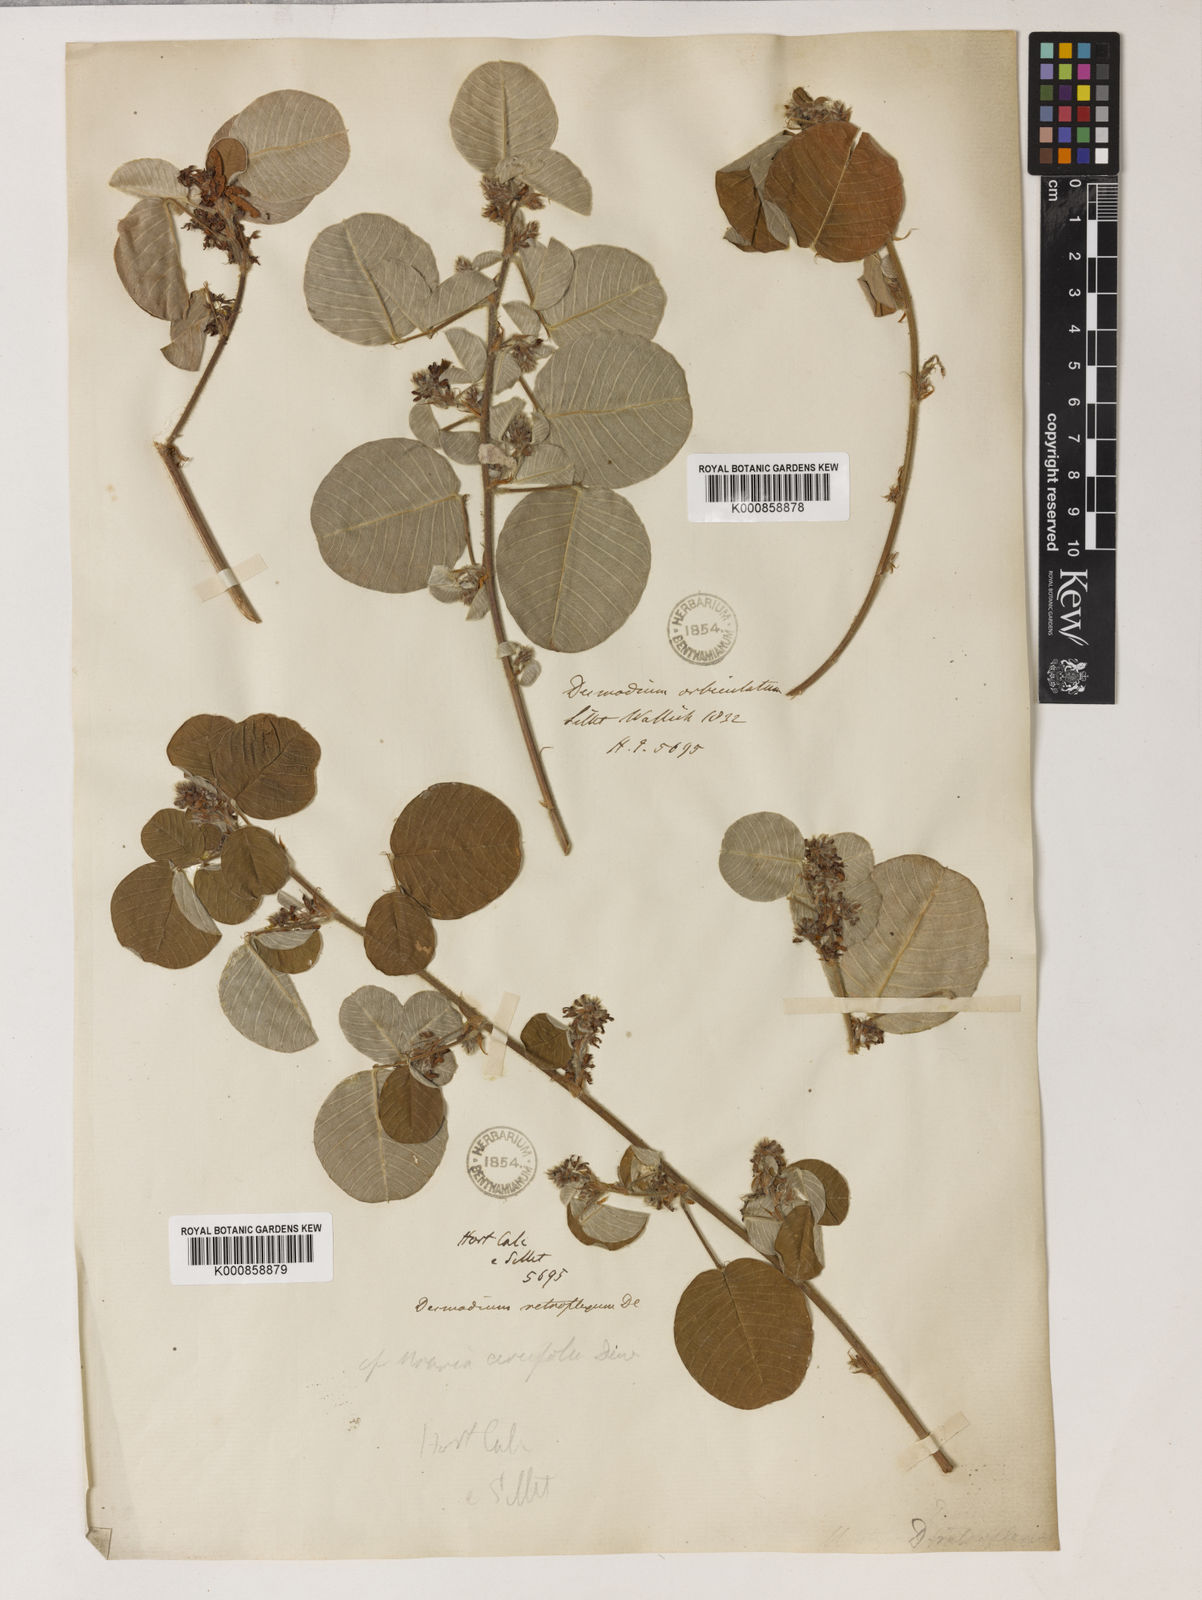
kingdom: Plantae
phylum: Tracheophyta
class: Magnoliopsida
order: Fabales
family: Fabaceae
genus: Grona
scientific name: Grona styracifolia
